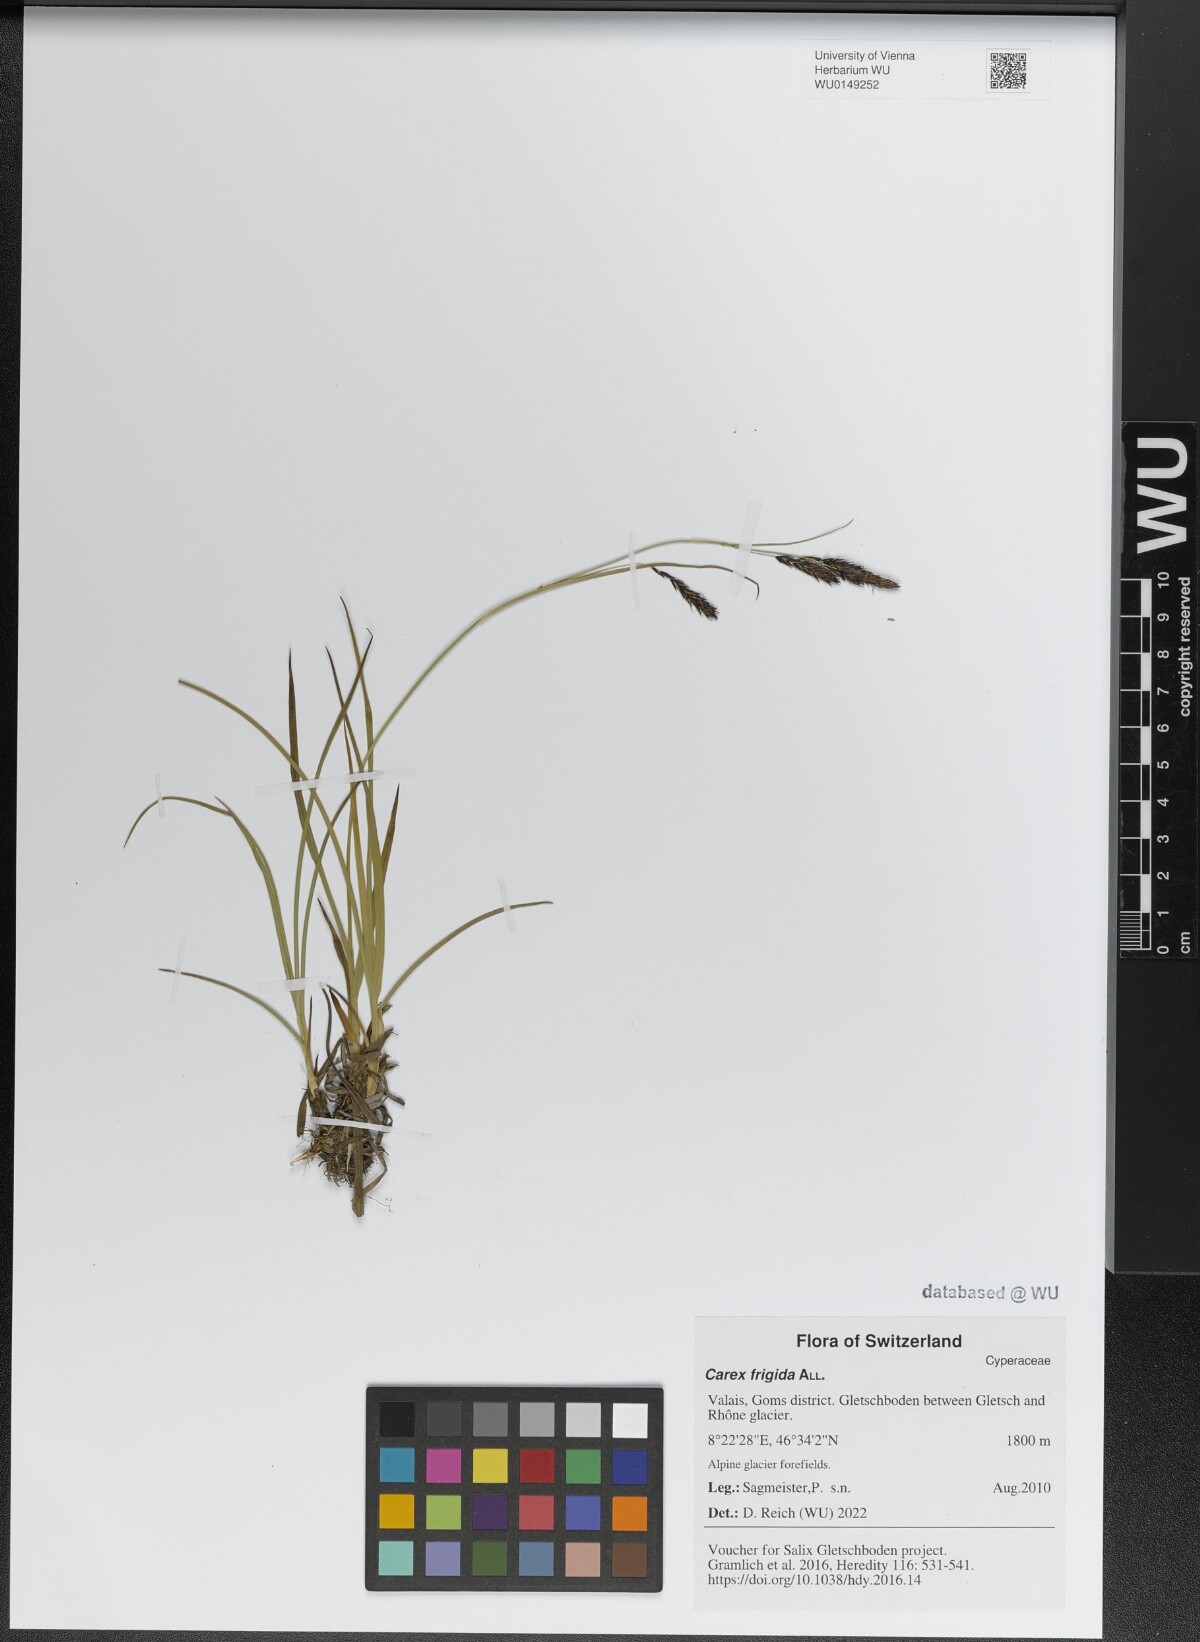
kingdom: Plantae
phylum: Tracheophyta
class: Liliopsida
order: Poales
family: Cyperaceae
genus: Carex
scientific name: Carex frigida
